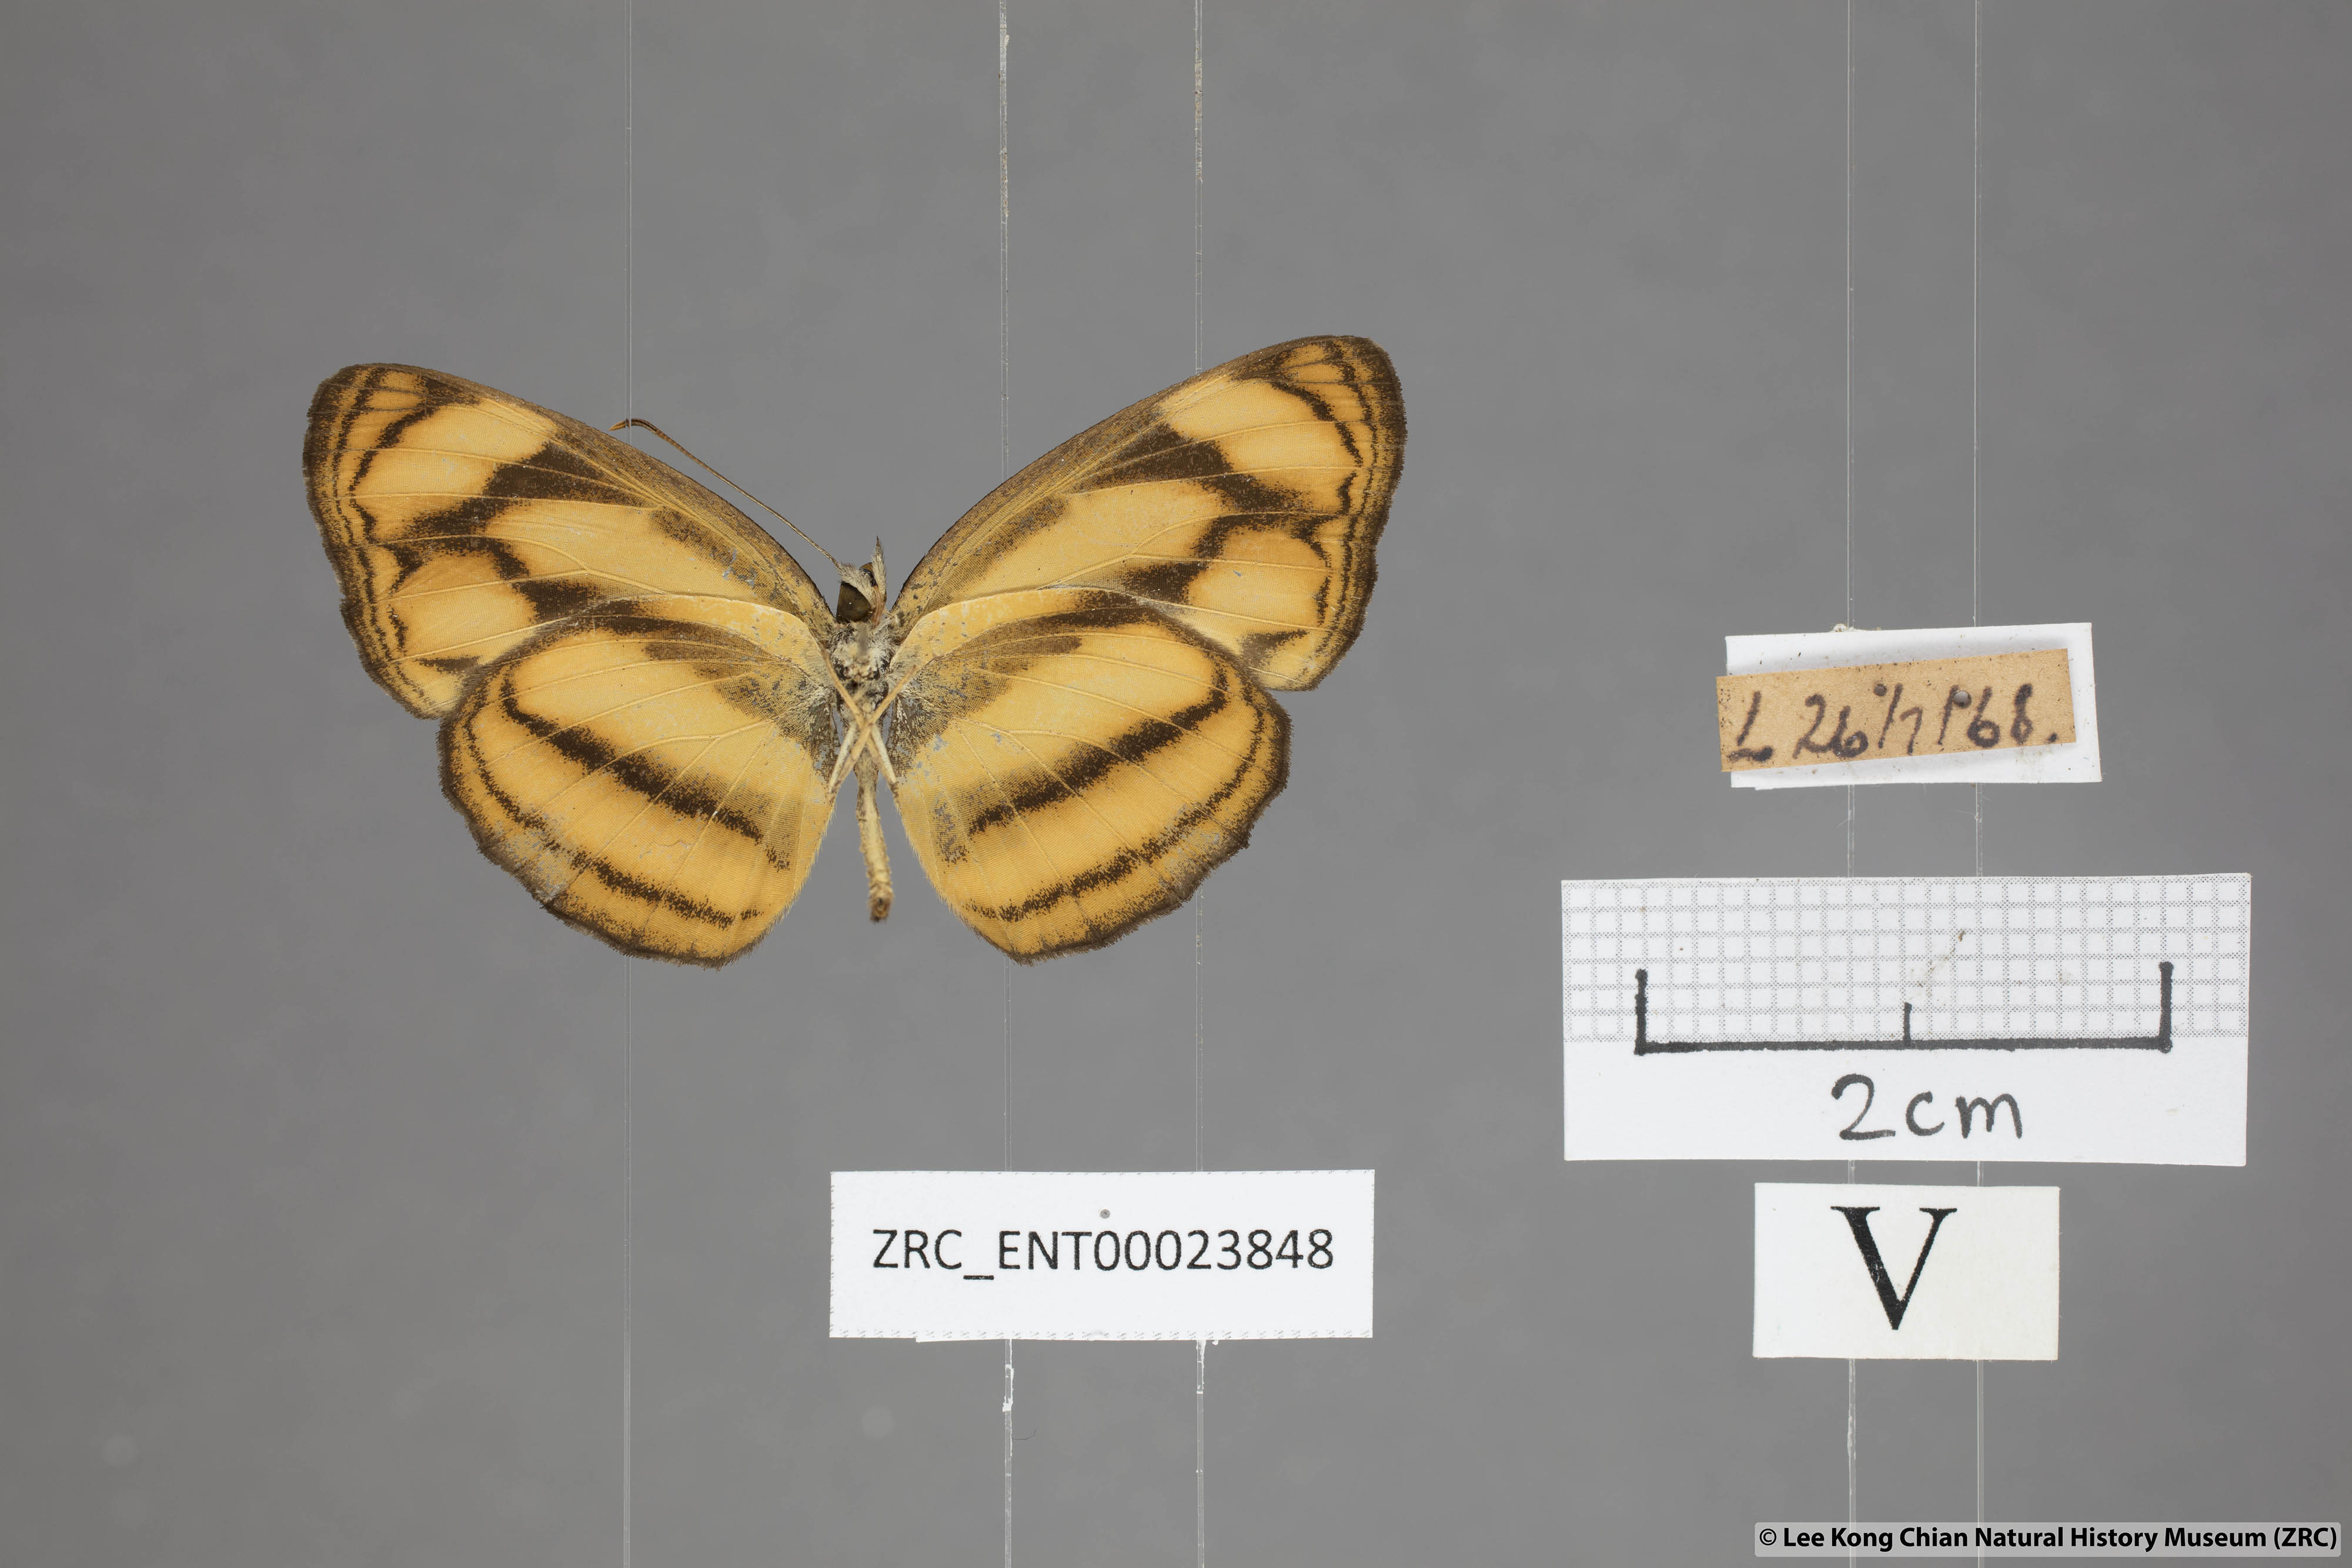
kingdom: Animalia
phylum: Arthropoda
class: Insecta
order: Lepidoptera
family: Nymphalidae
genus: Lasippa
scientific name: Lasippa tiga
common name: Malayan lascar
